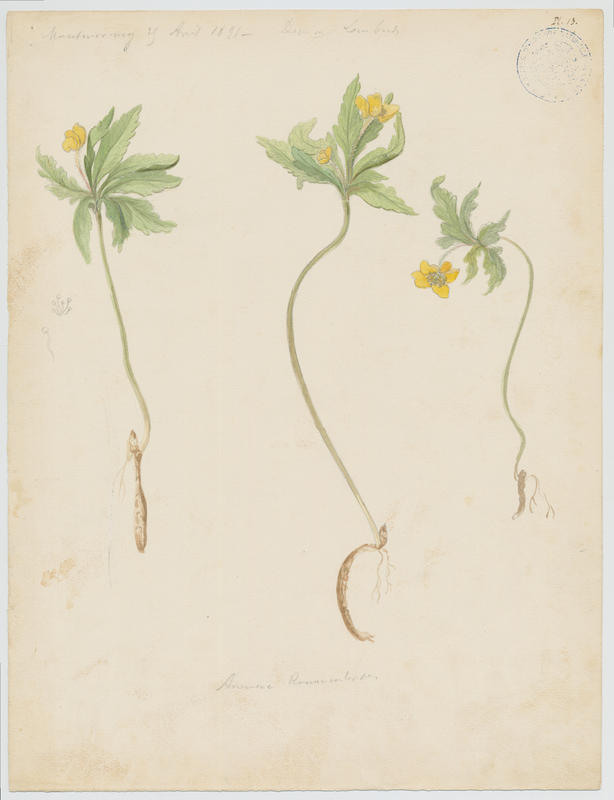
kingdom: Plantae
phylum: Tracheophyta
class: Magnoliopsida
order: Ranunculales
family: Ranunculaceae
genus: Anemone
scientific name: Anemone ranunculoides
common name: Yellow anemone
